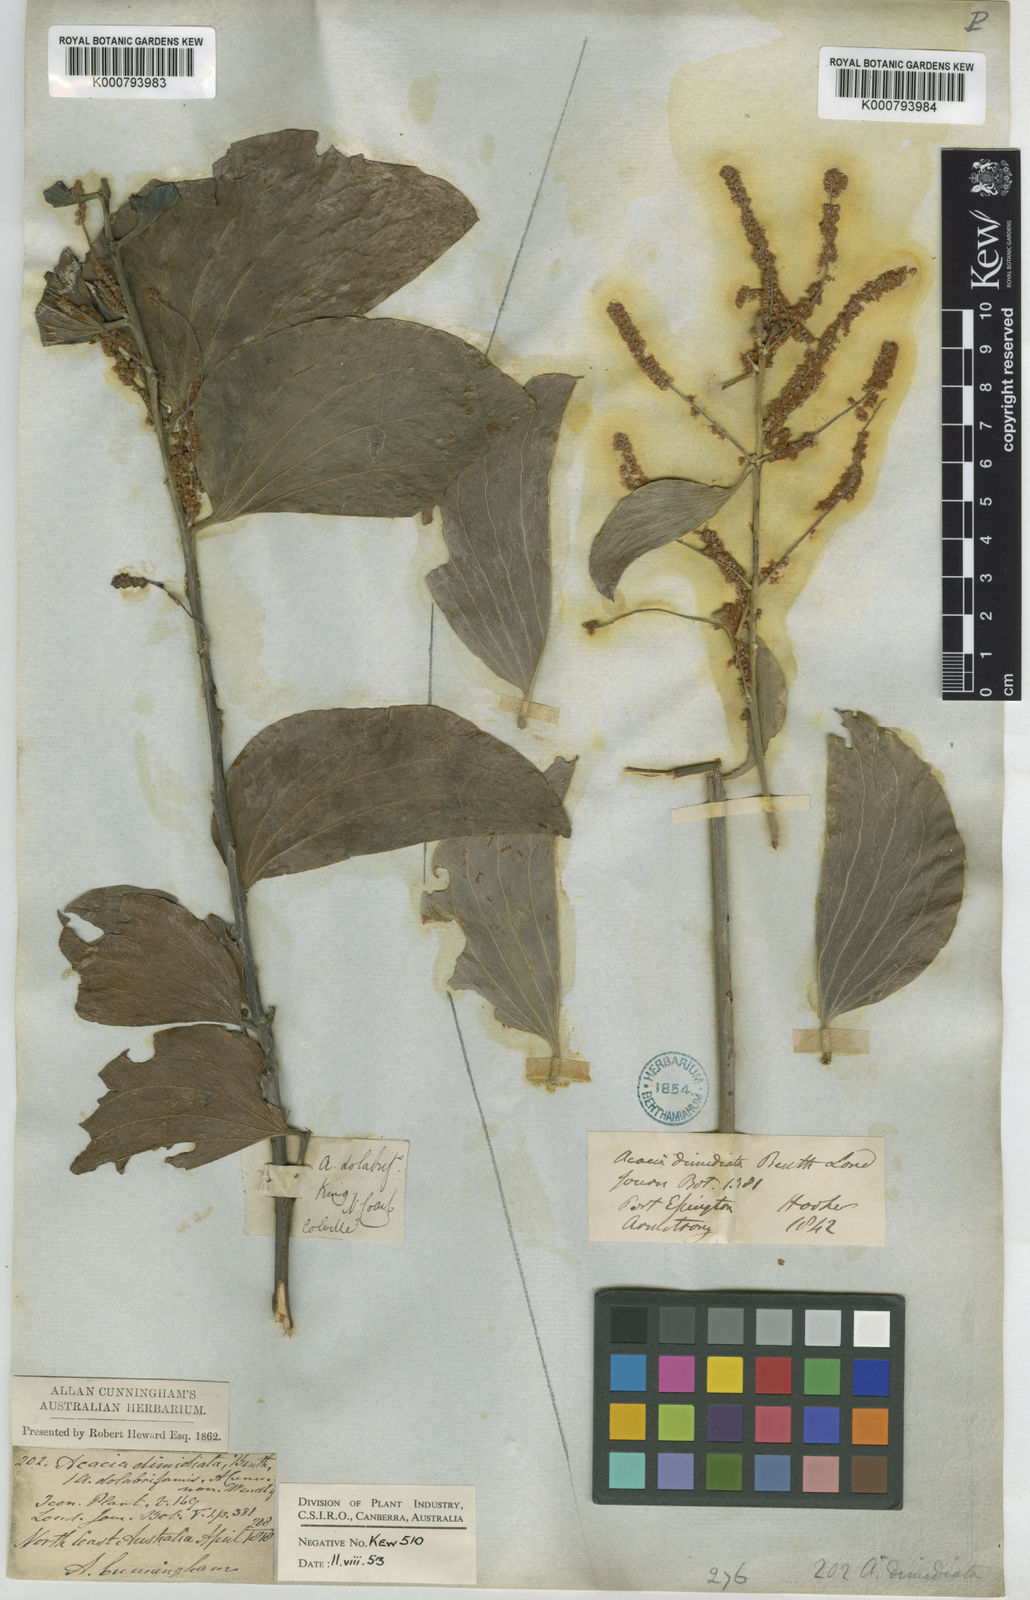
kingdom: Plantae
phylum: Tracheophyta
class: Magnoliopsida
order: Fabales
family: Fabaceae
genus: Acacia
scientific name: Acacia dimidiata
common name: Swamp wattle
